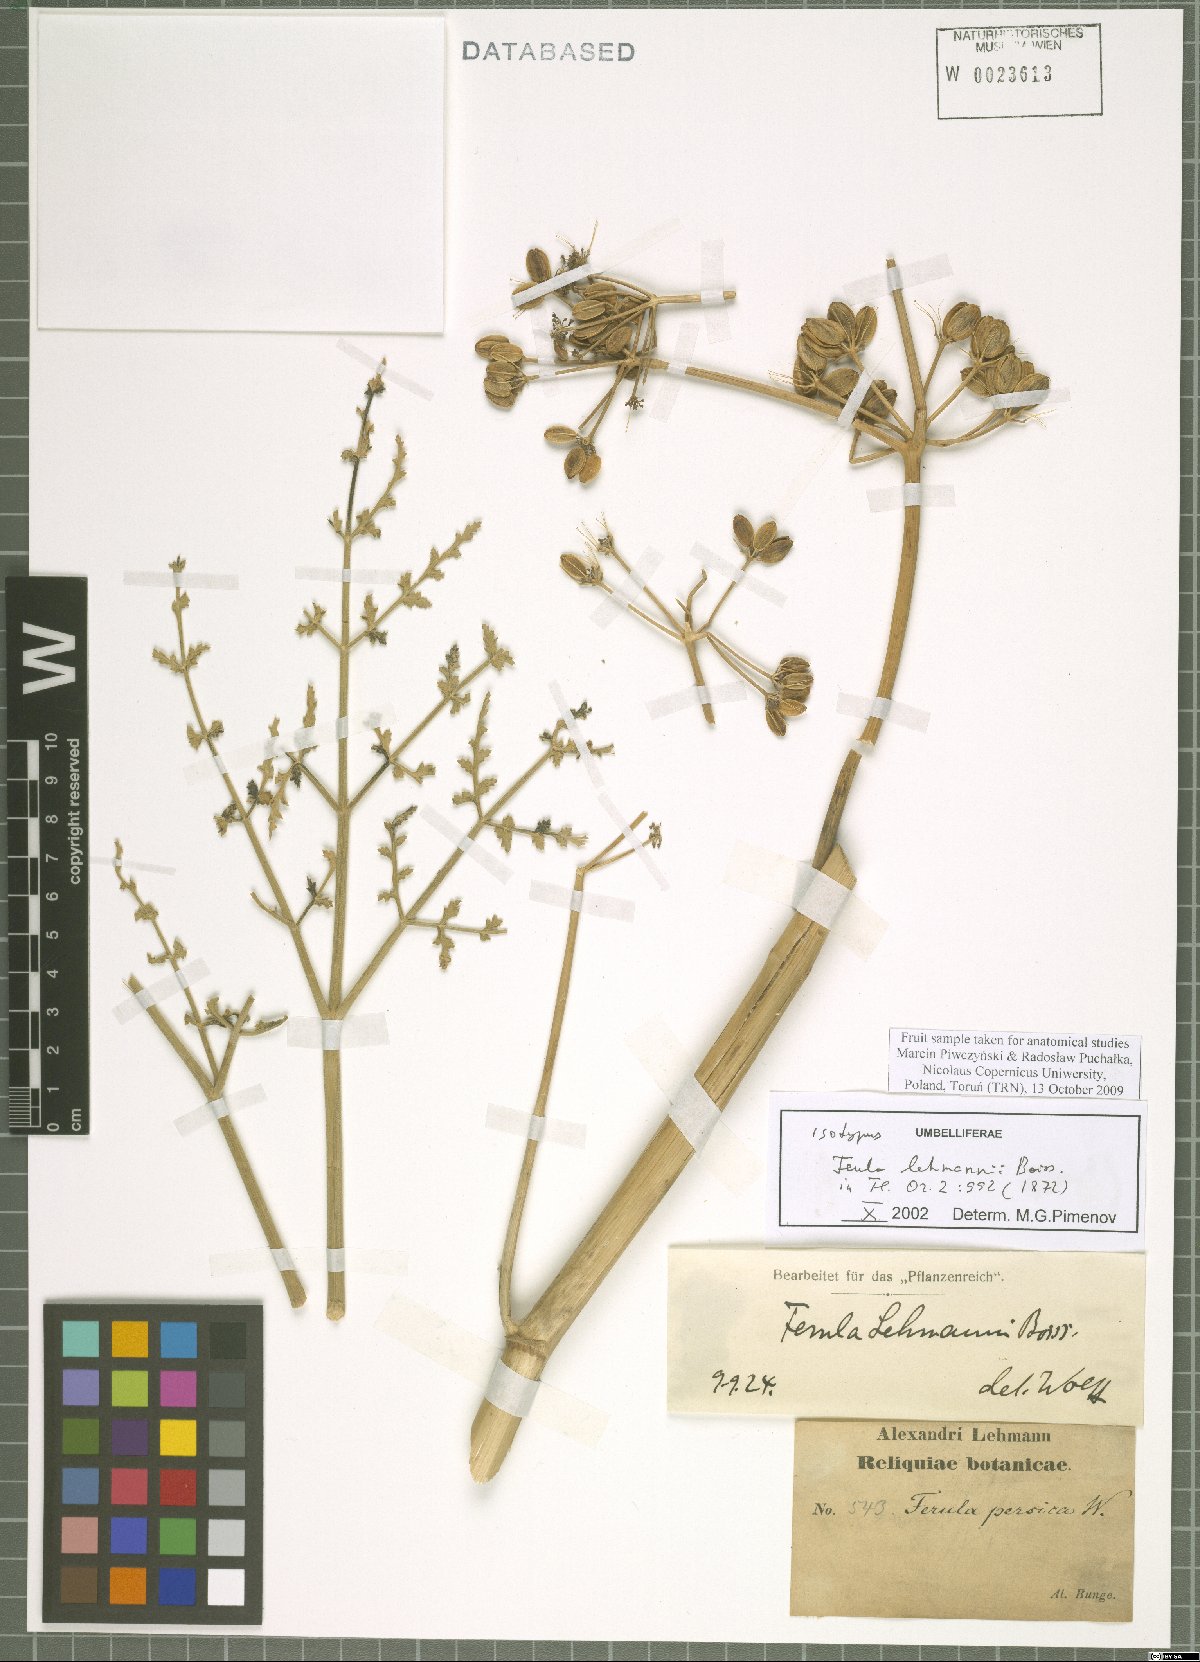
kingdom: Plantae
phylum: Tracheophyta
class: Magnoliopsida
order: Apiales
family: Apiaceae
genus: Ferula
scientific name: Ferula lehmannii
